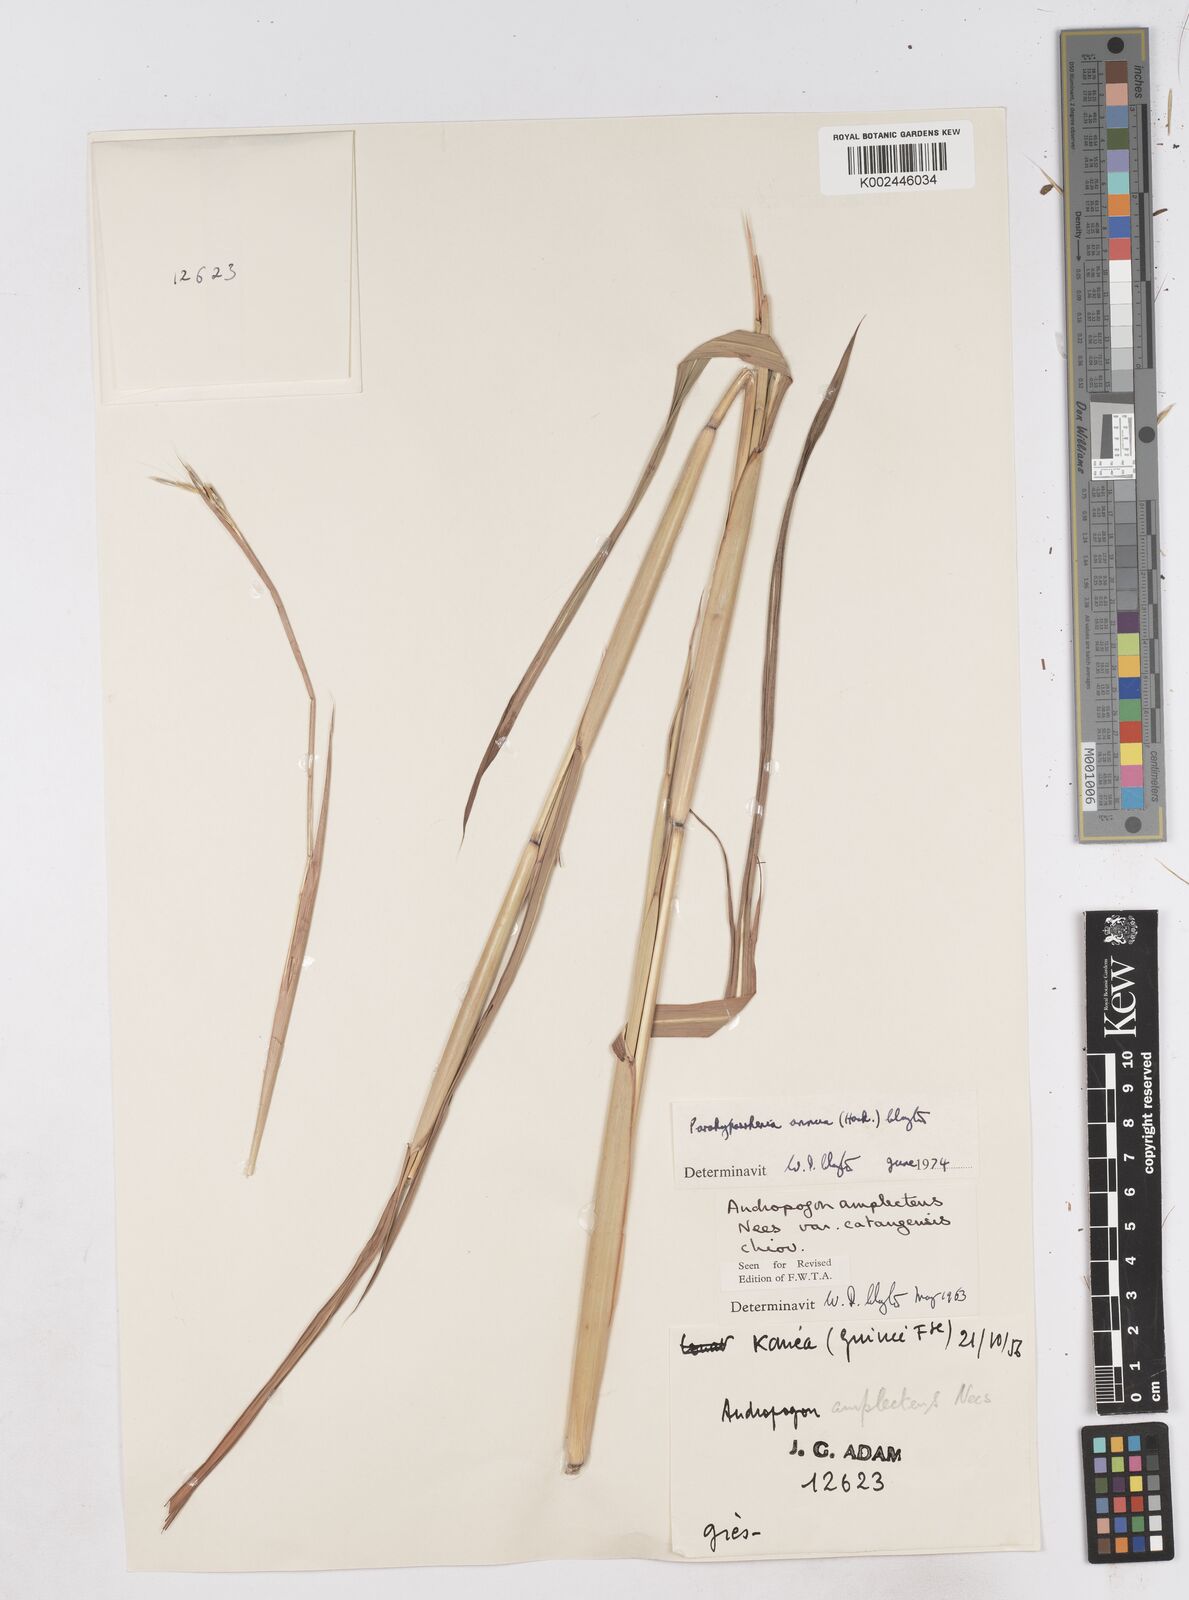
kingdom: Plantae
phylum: Tracheophyta
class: Liliopsida
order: Poales
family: Poaceae
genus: Parahyparrhenia
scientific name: Parahyparrhenia annua
